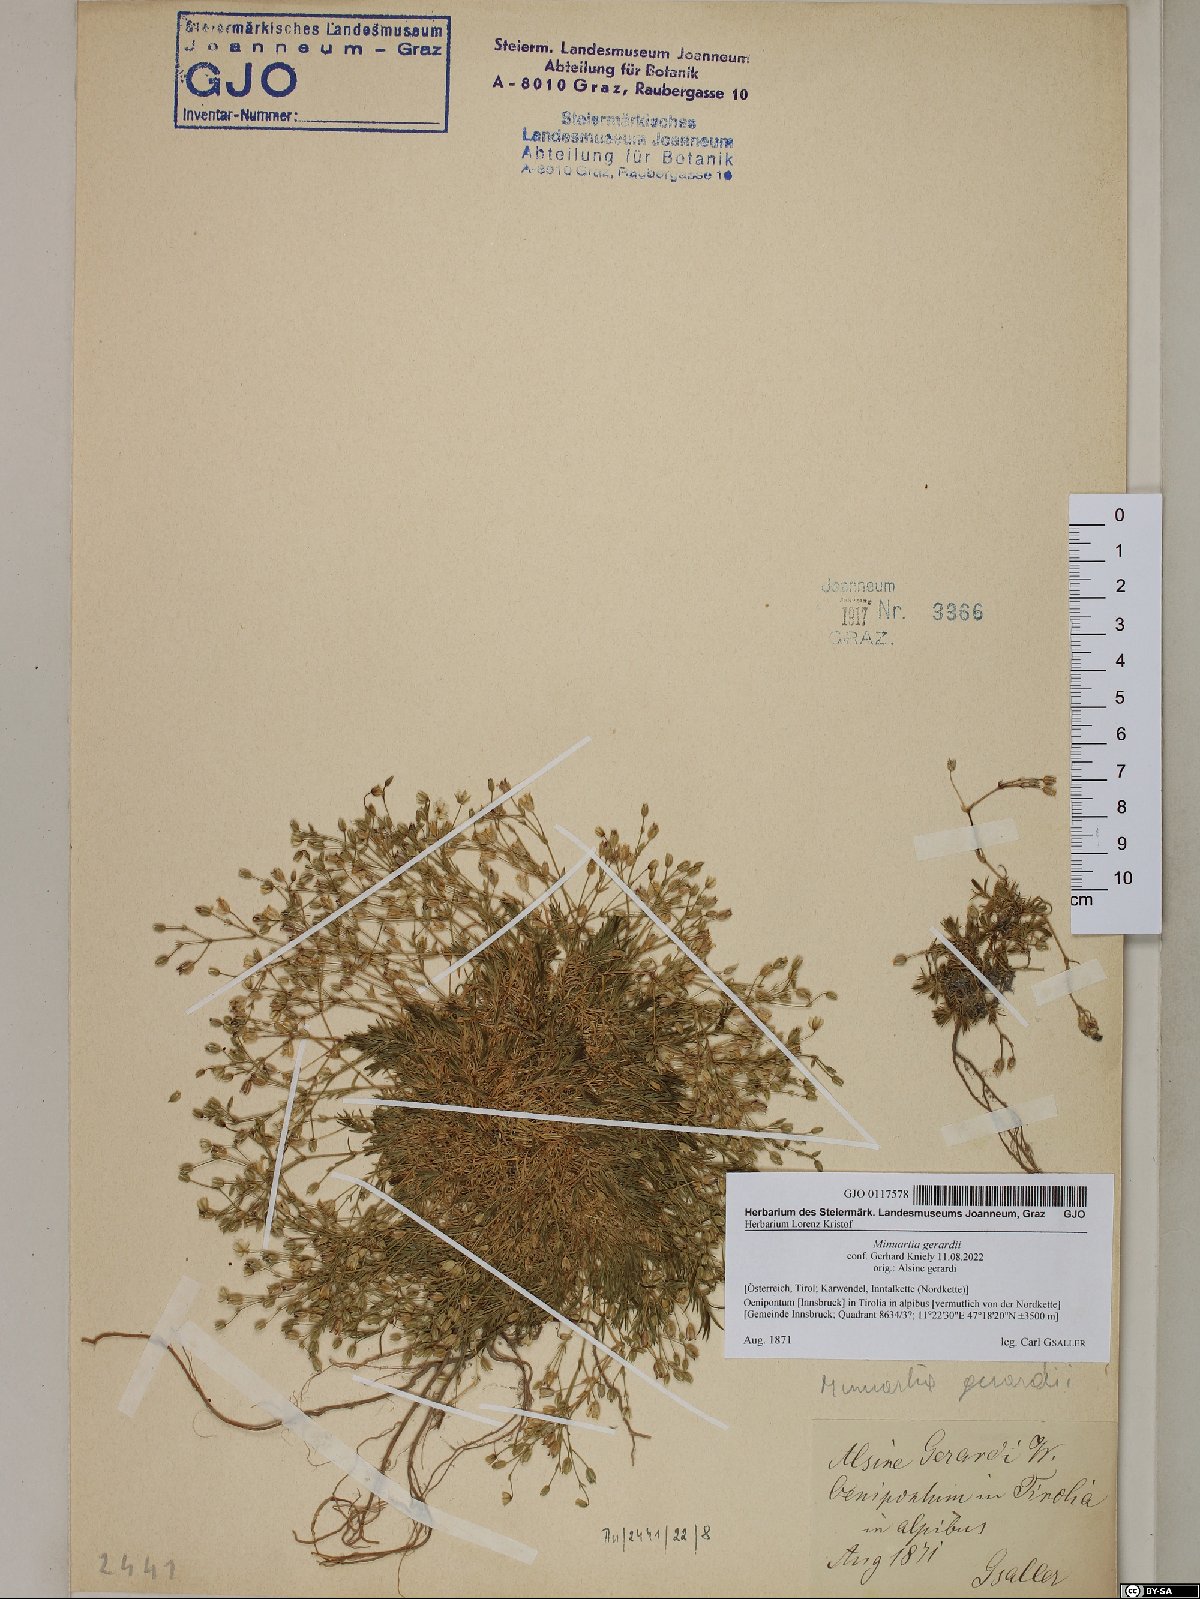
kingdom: Plantae
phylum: Tracheophyta
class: Magnoliopsida
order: Caryophyllales
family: Caryophyllaceae
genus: Sabulina
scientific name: Sabulina verna
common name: Spring sandwort
